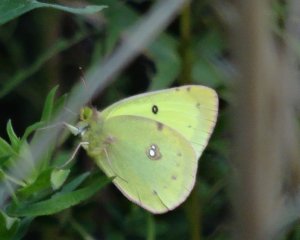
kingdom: Animalia
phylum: Arthropoda
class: Insecta
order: Lepidoptera
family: Pieridae
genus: Colias
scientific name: Colias philodice
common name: Clouded Sulphur
